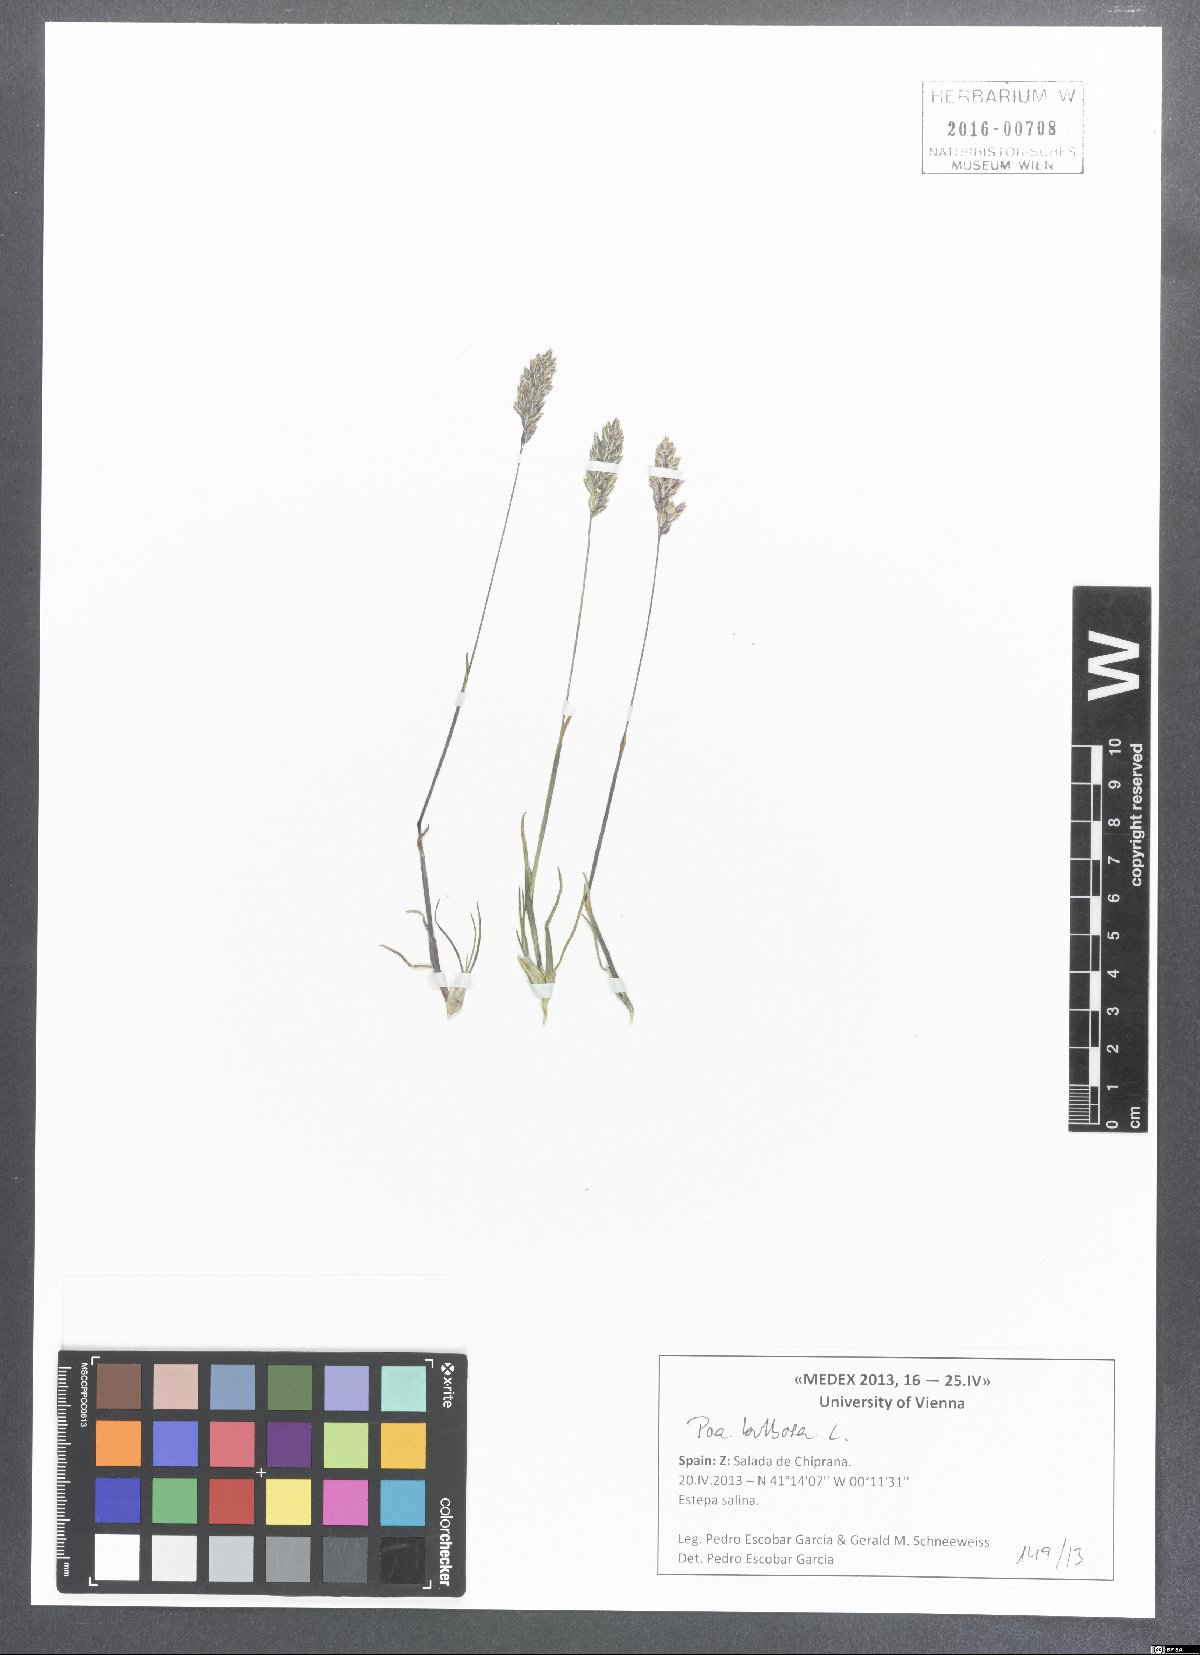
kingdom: Plantae
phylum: Tracheophyta
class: Liliopsida
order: Poales
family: Poaceae
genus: Poa
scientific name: Poa bulbosa
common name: Bulbous bluegrass
